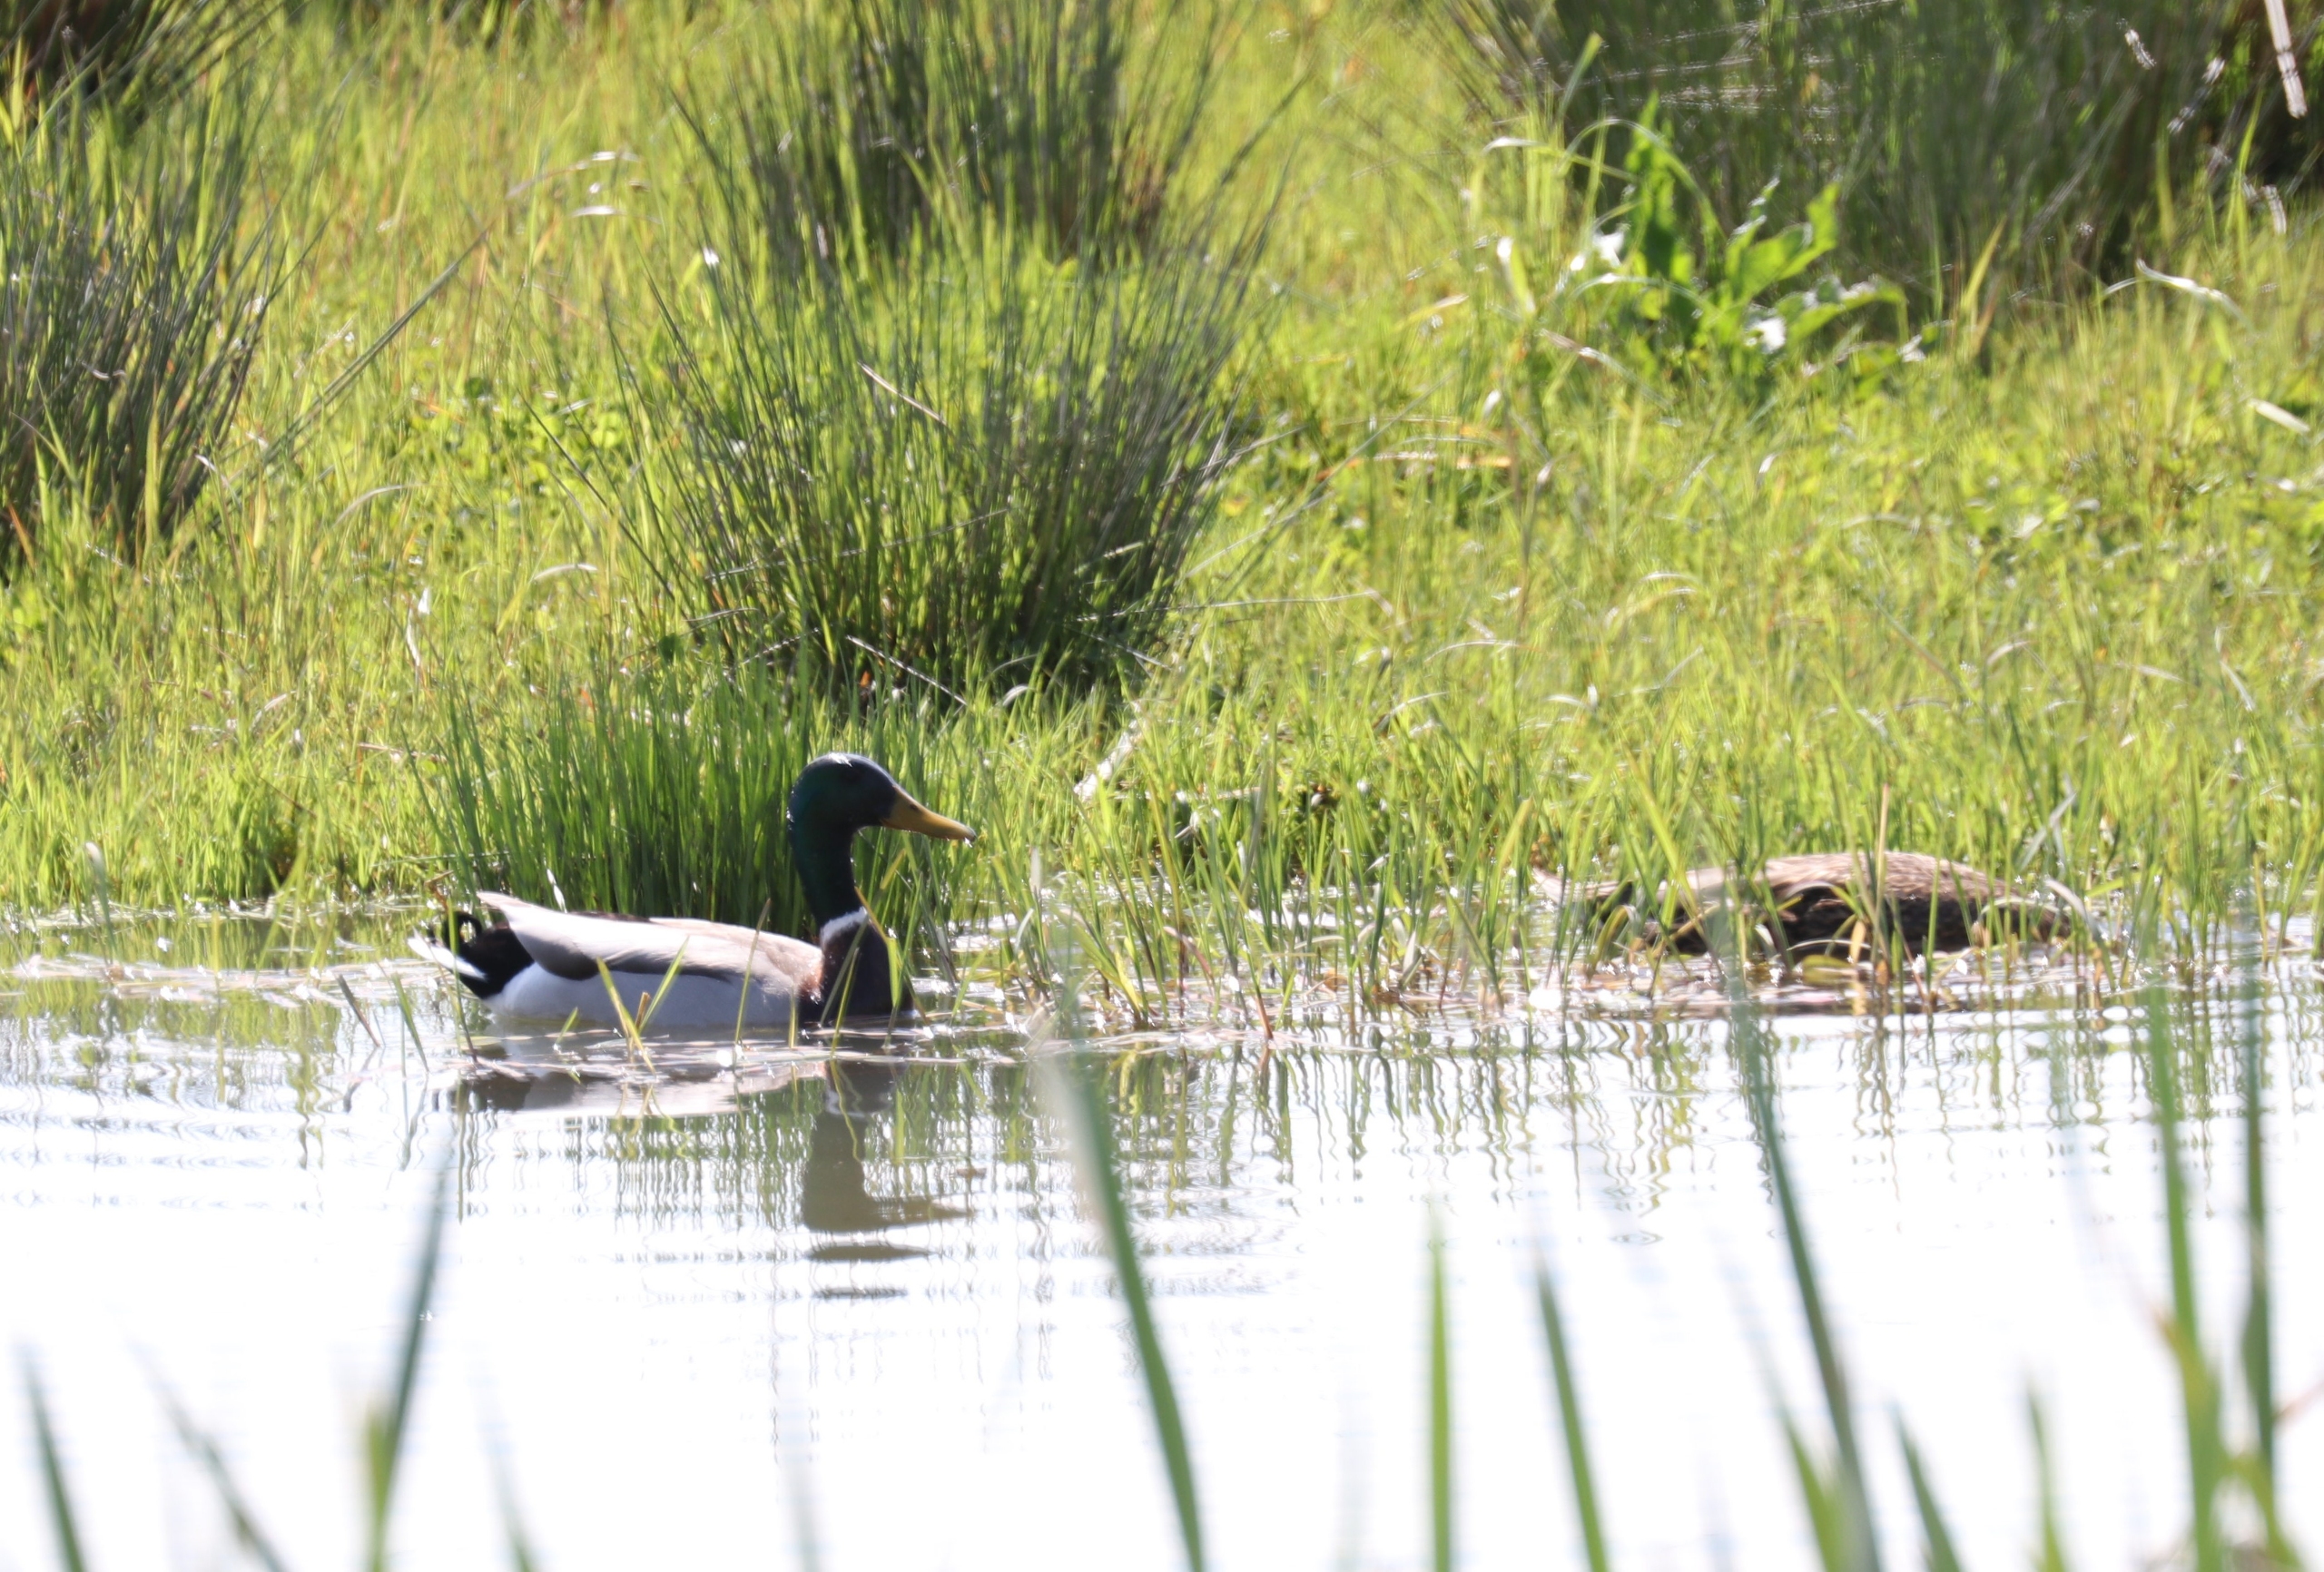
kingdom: Animalia
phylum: Chordata
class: Aves
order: Anseriformes
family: Anatidae
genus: Anas
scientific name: Anas platyrhynchos
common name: Gråand
